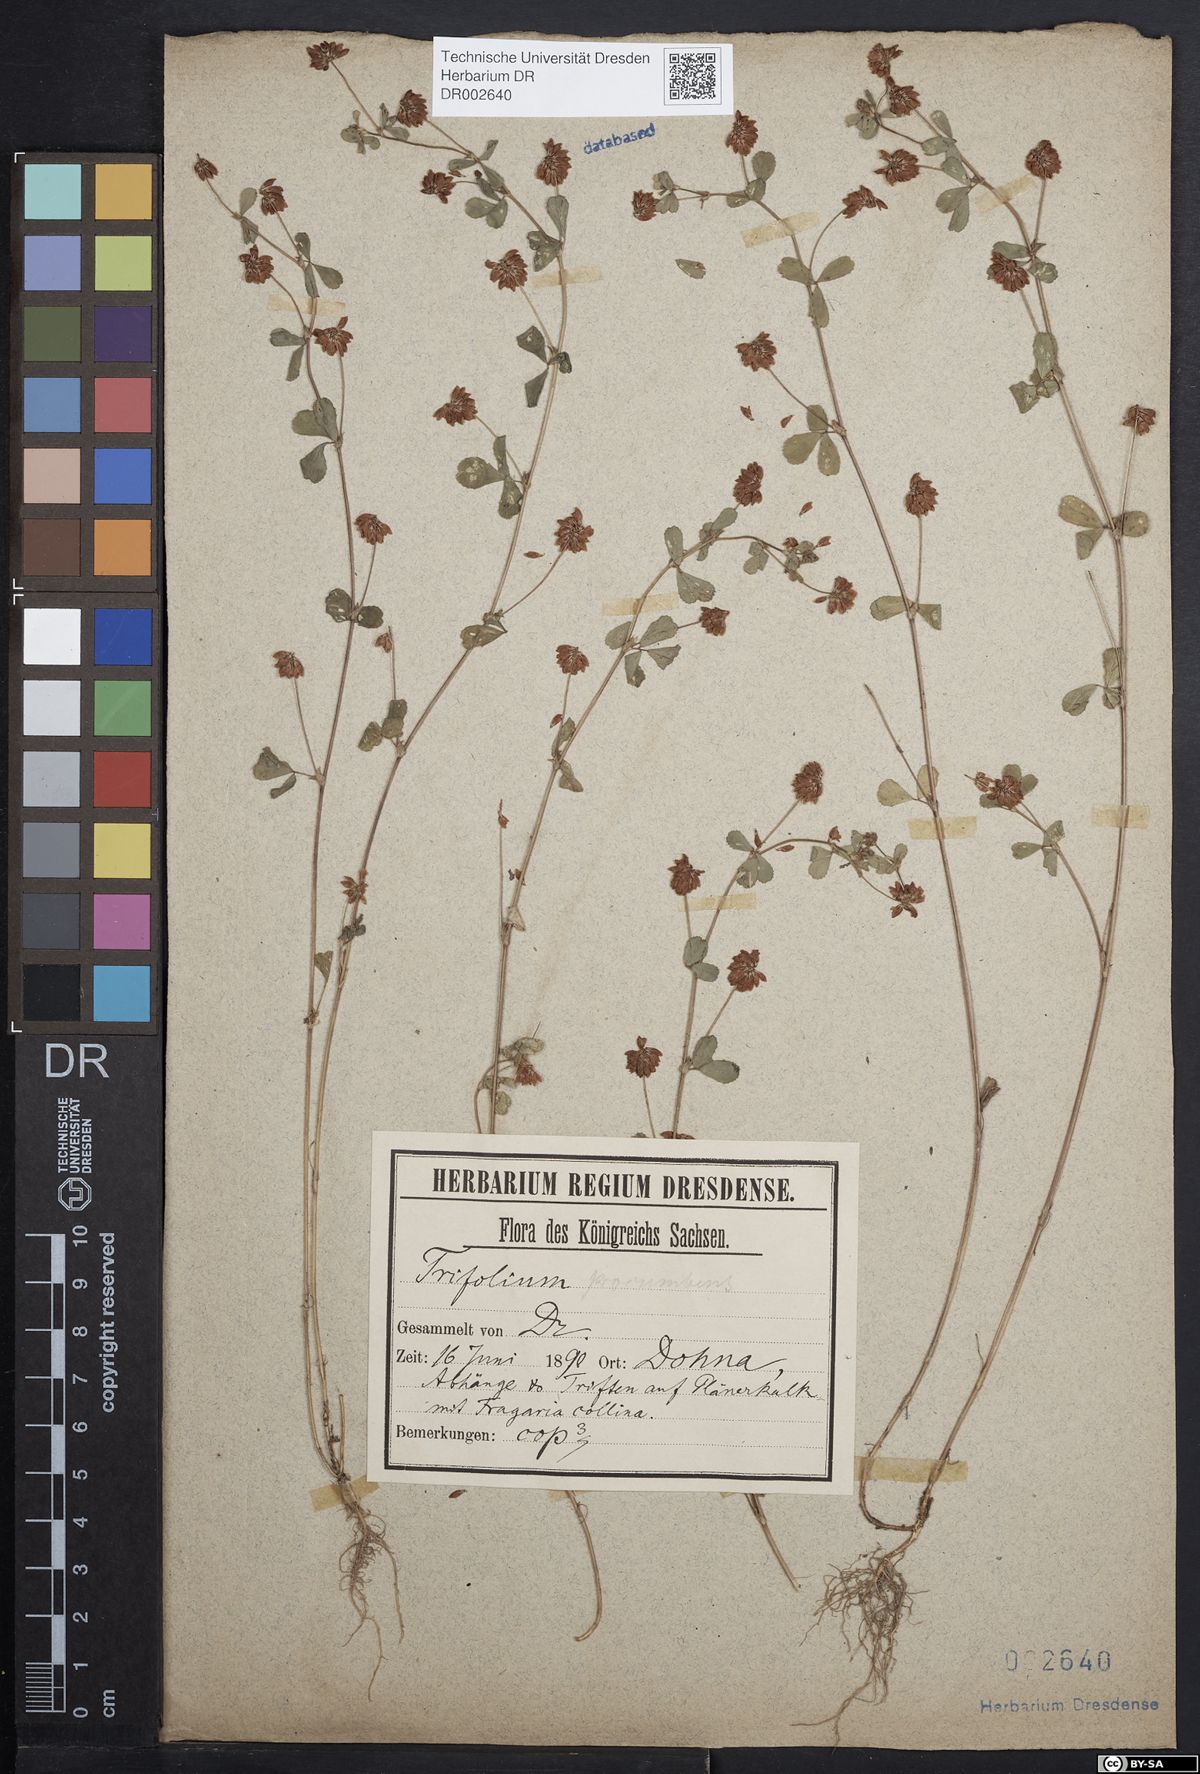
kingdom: Plantae
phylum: Tracheophyta
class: Magnoliopsida
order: Fabales
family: Fabaceae
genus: Trifolium
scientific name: Trifolium dubium
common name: Suckling clover
